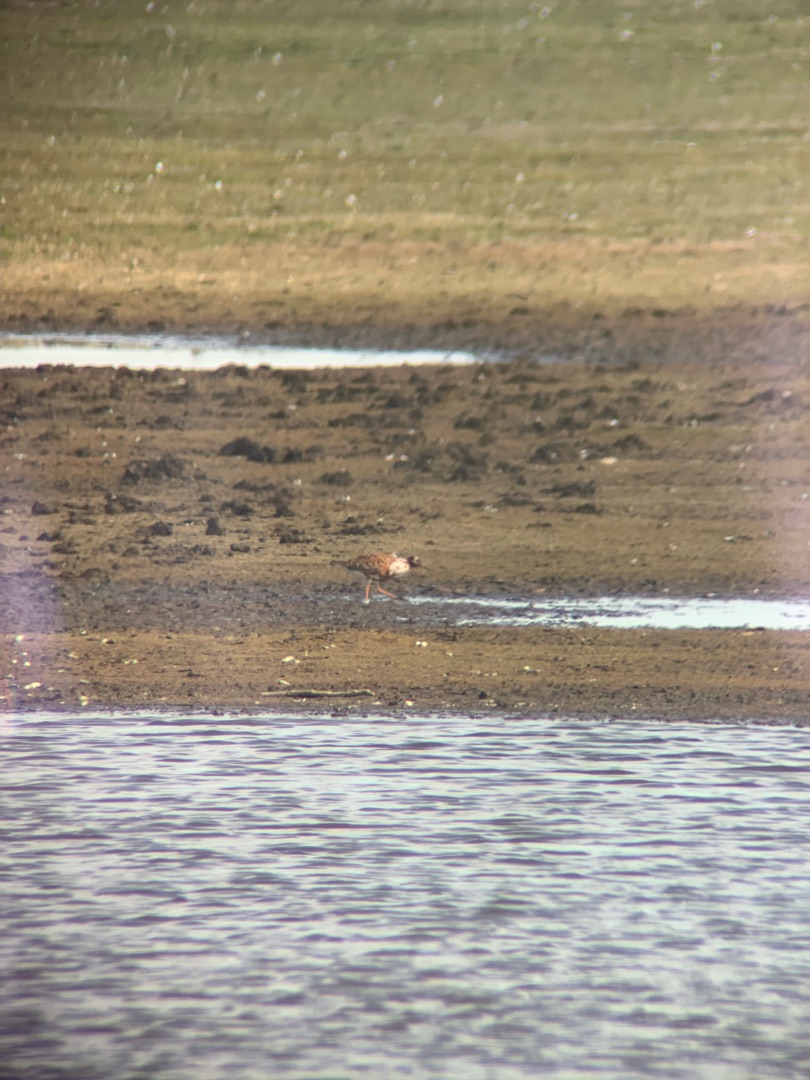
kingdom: Animalia
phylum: Chordata
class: Aves
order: Charadriiformes
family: Scolopacidae
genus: Calidris
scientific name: Calidris pugnax
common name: Brushane
